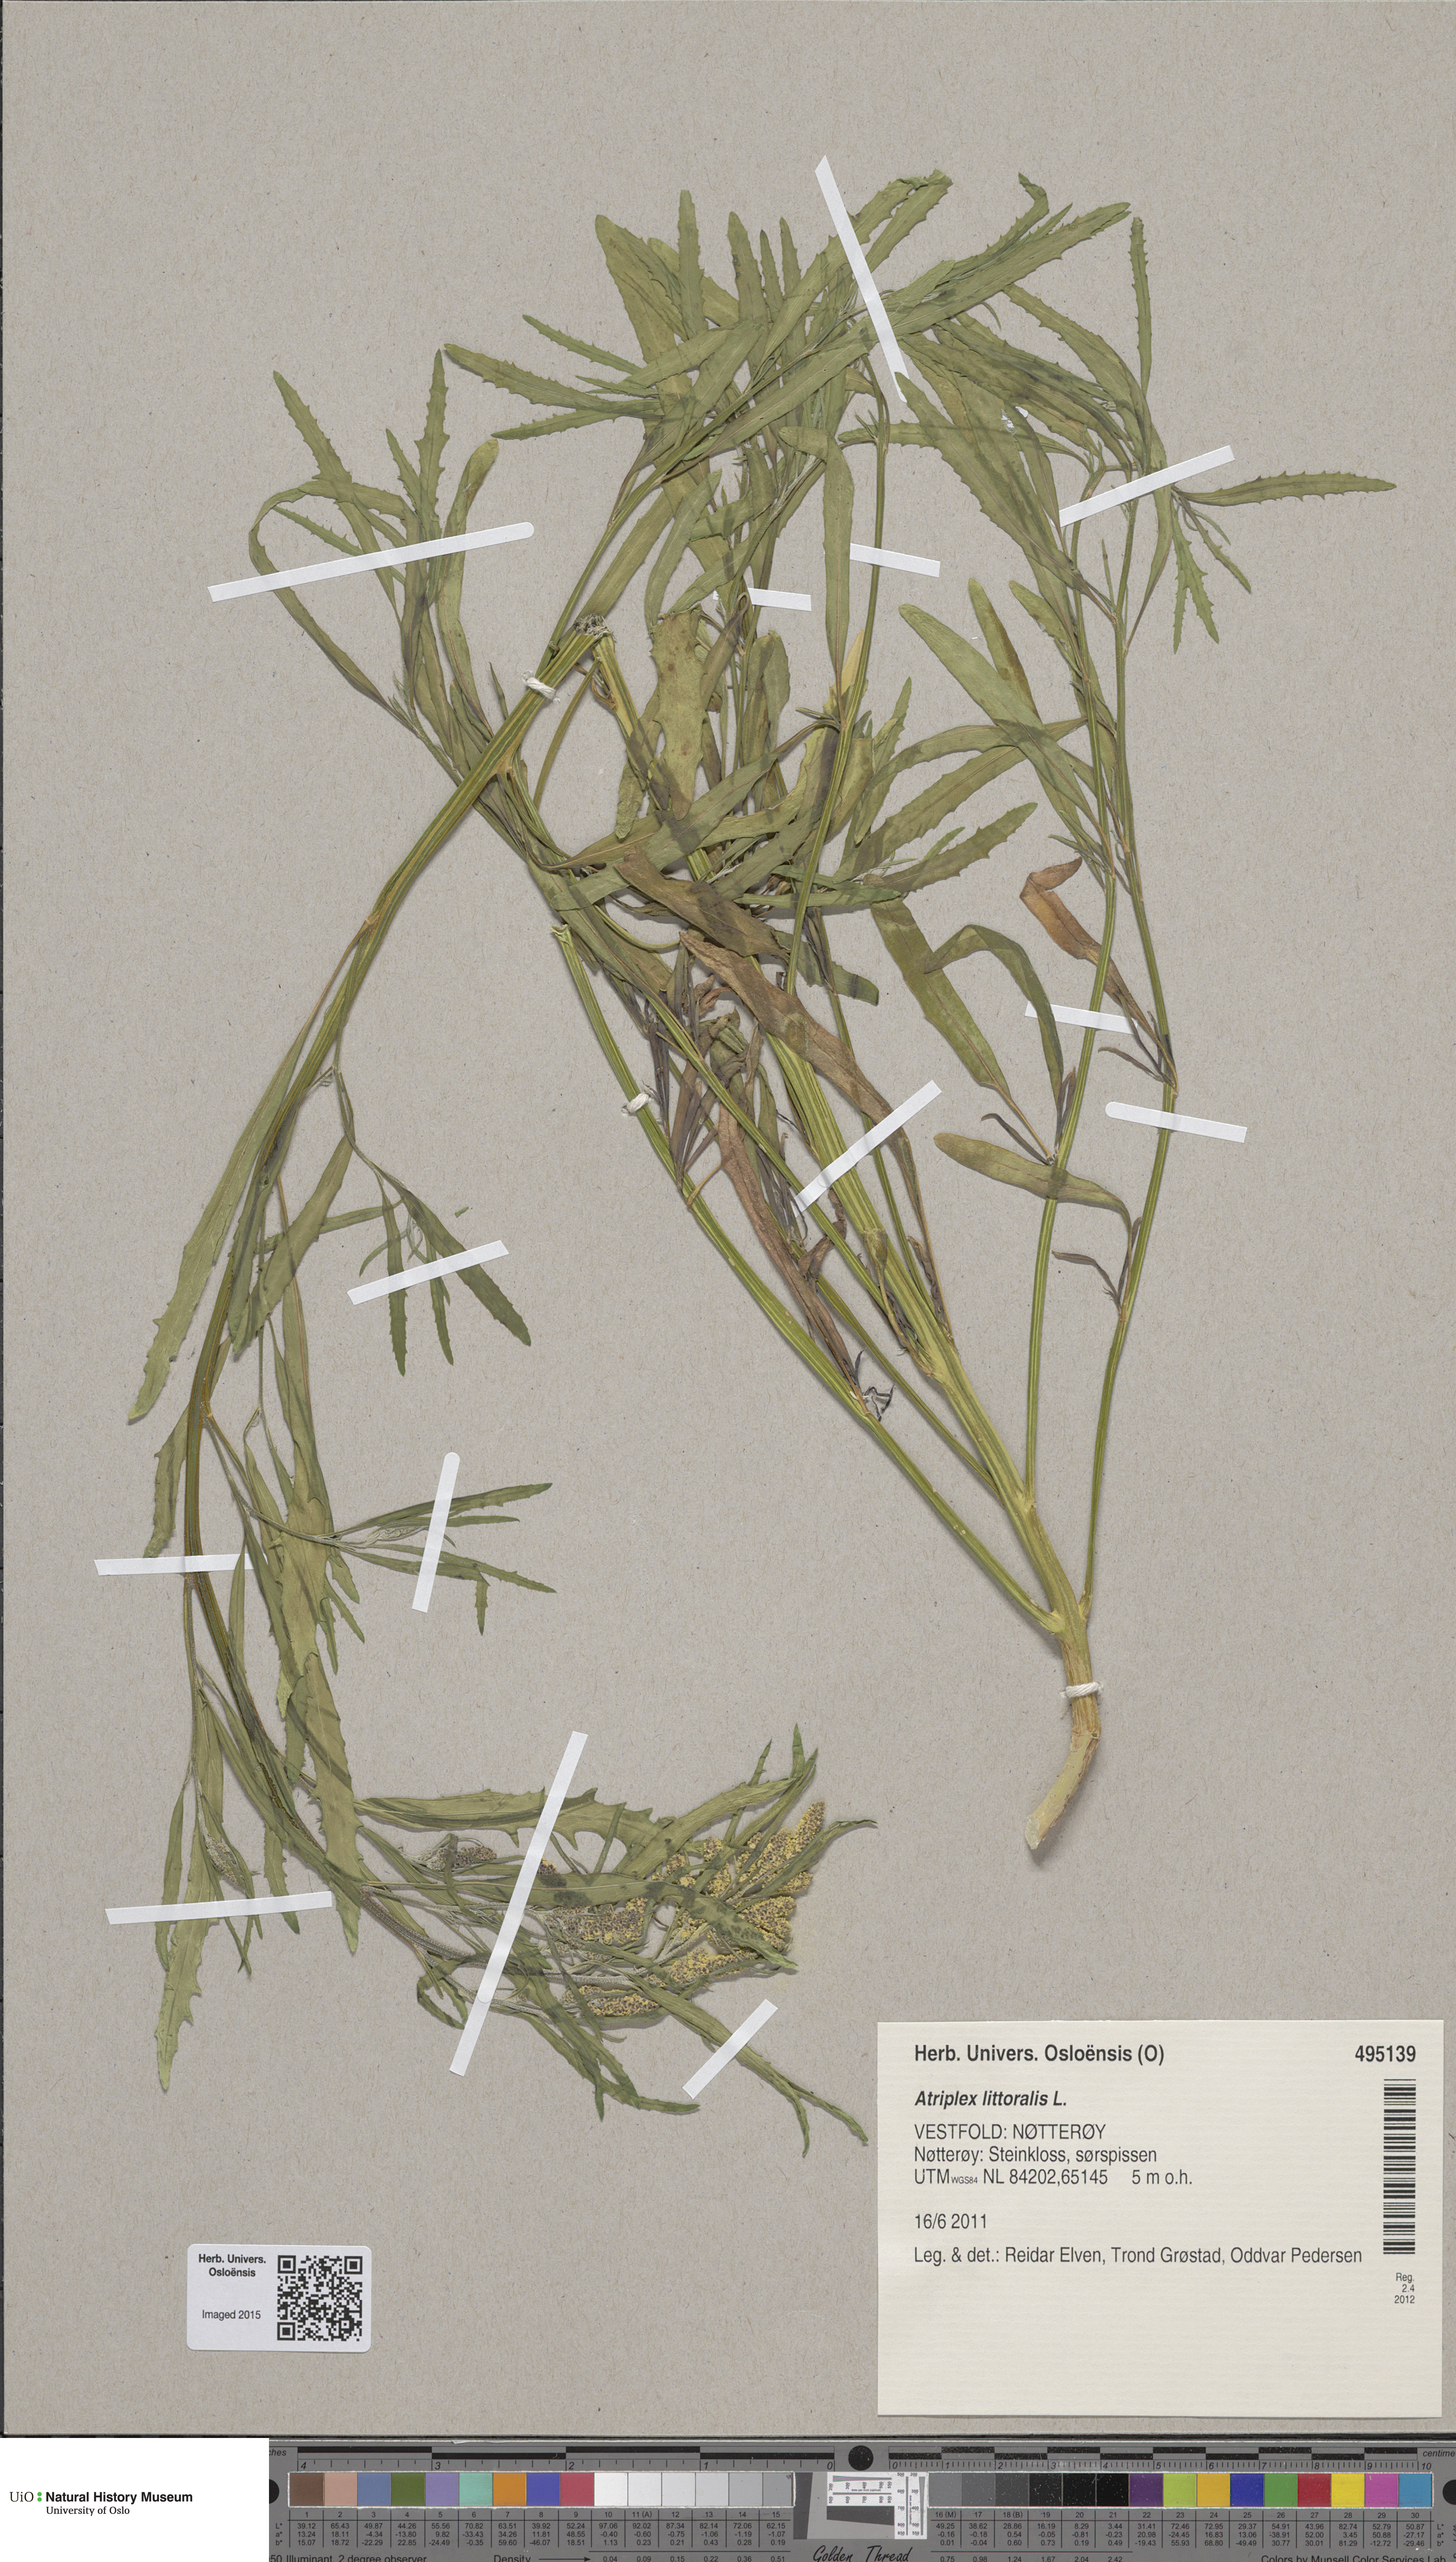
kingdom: Plantae
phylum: Tracheophyta
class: Magnoliopsida
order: Caryophyllales
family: Amaranthaceae
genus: Atriplex
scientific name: Atriplex littoralis
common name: Grass-leaved orache
